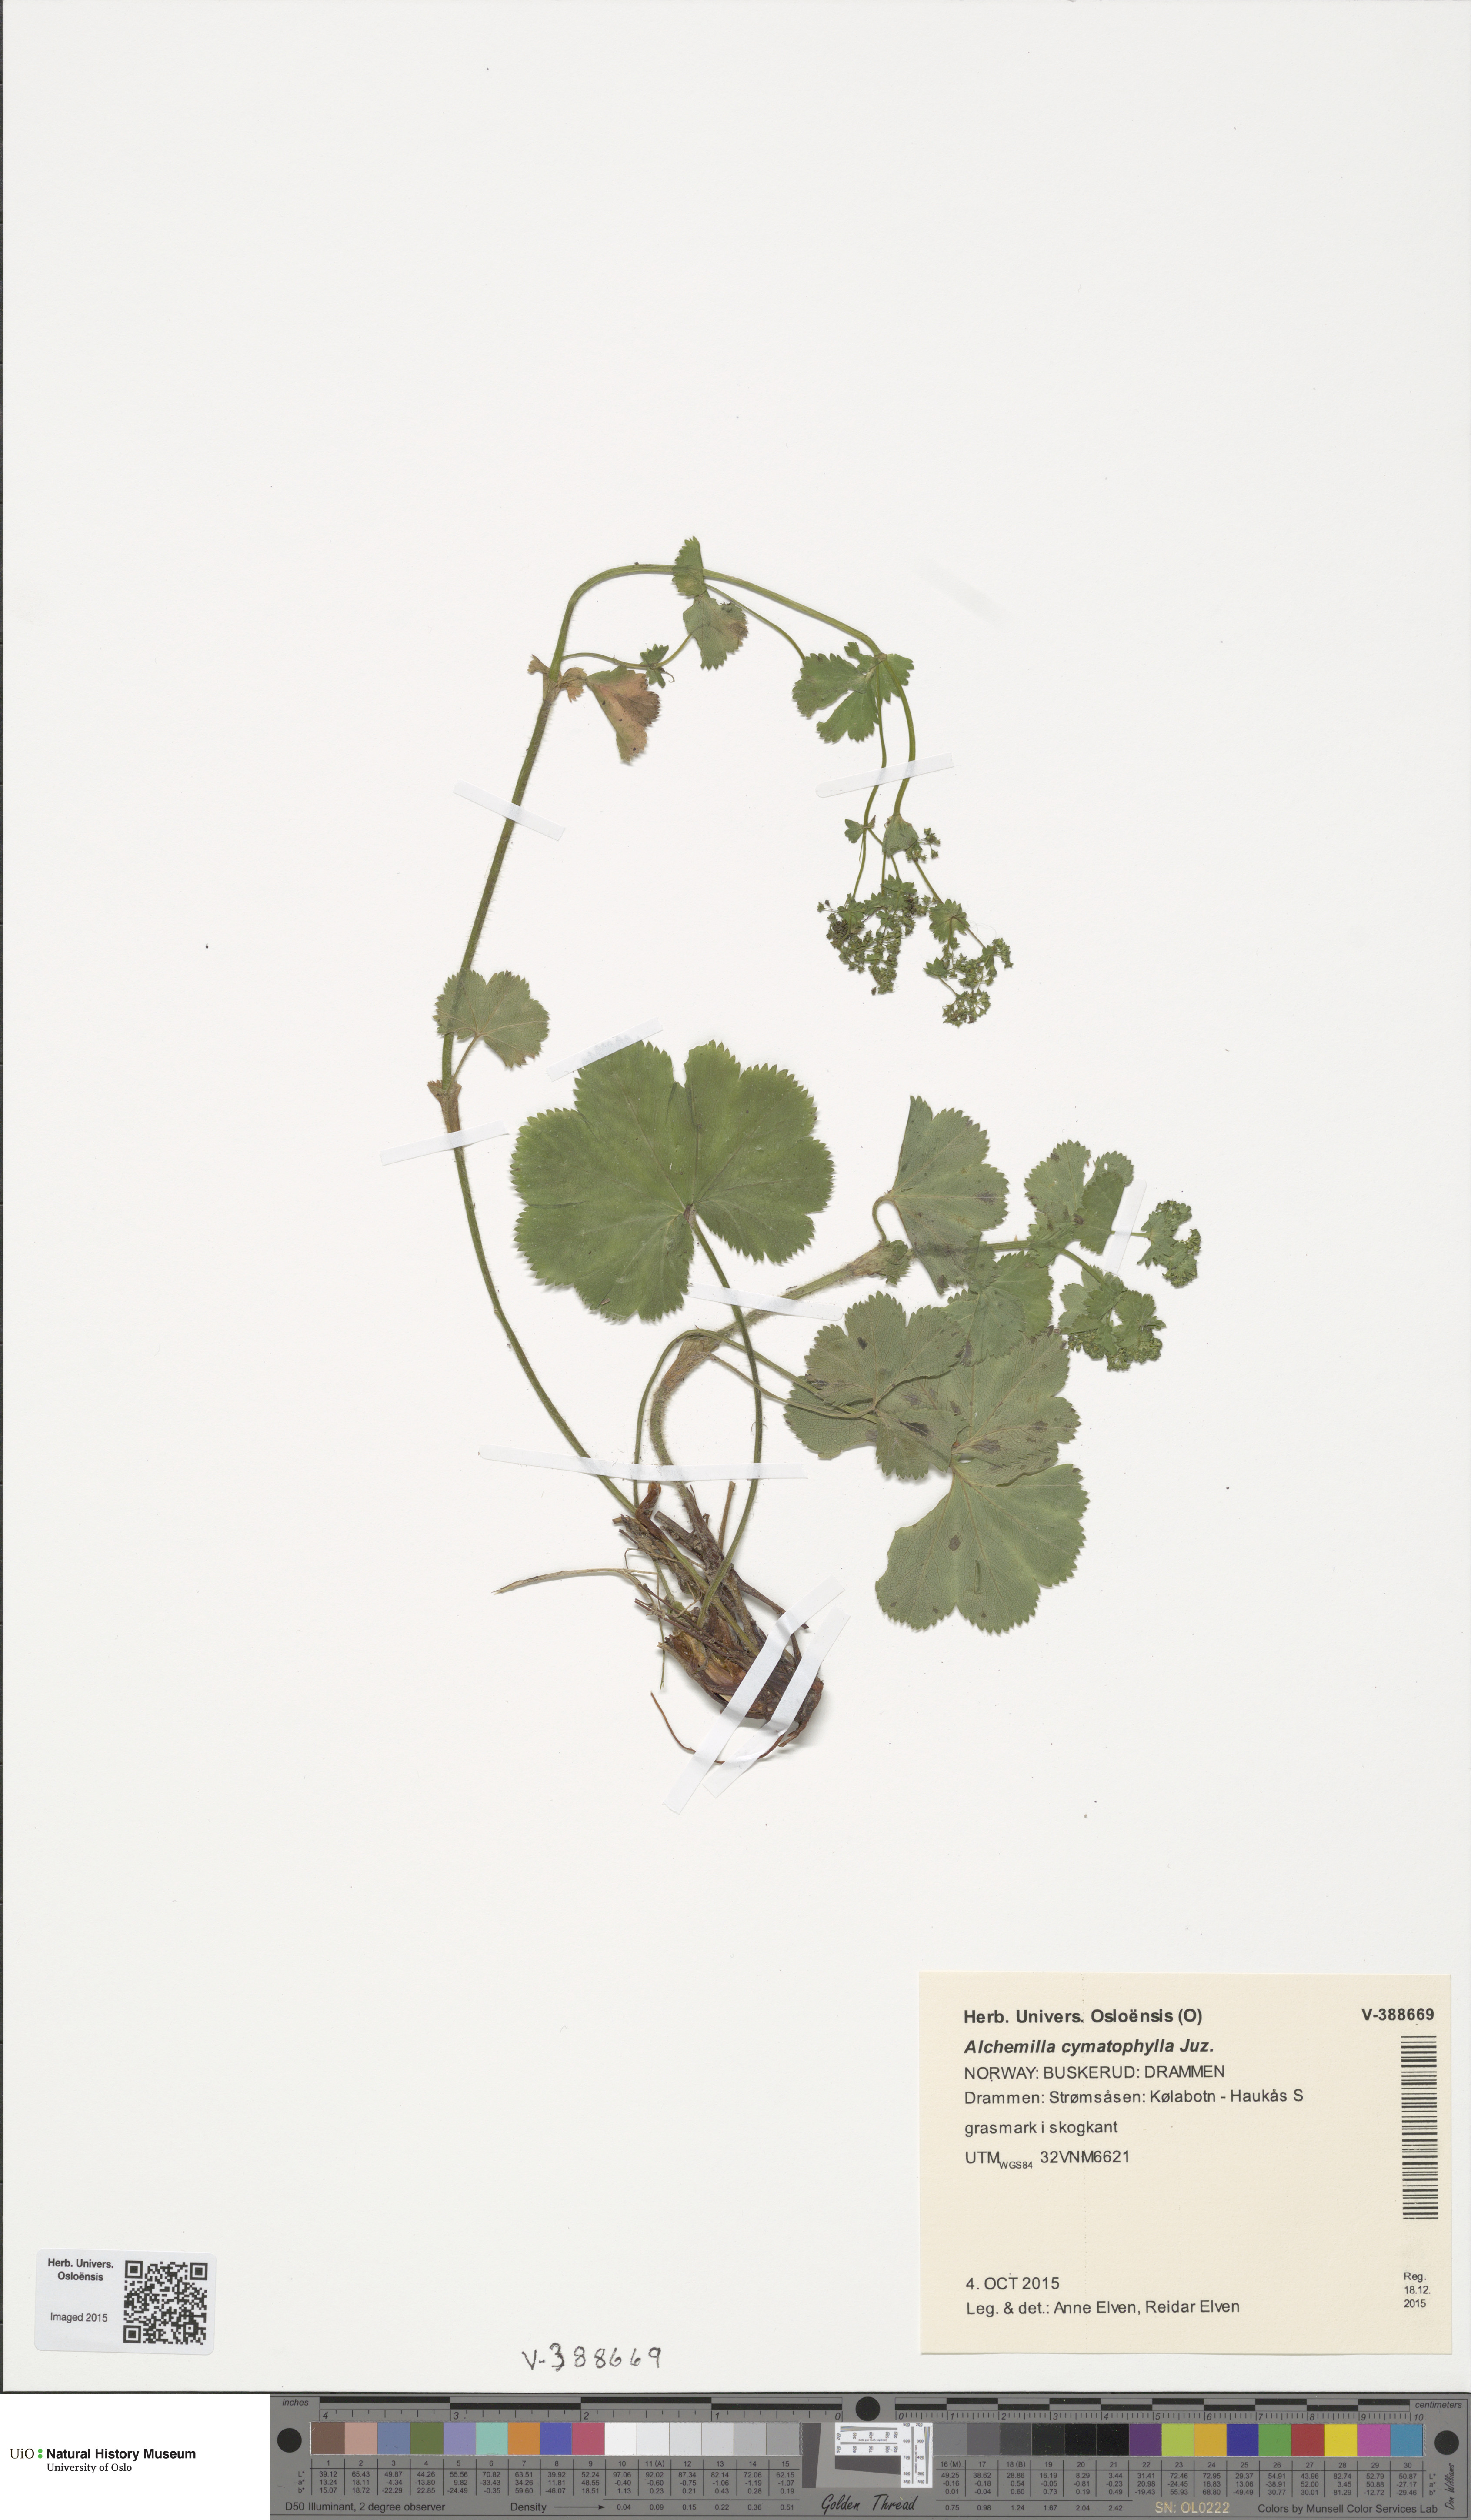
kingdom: Plantae
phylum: Tracheophyta
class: Magnoliopsida
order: Rosales
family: Rosaceae
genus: Alchemilla
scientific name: Alchemilla cymatophylla
